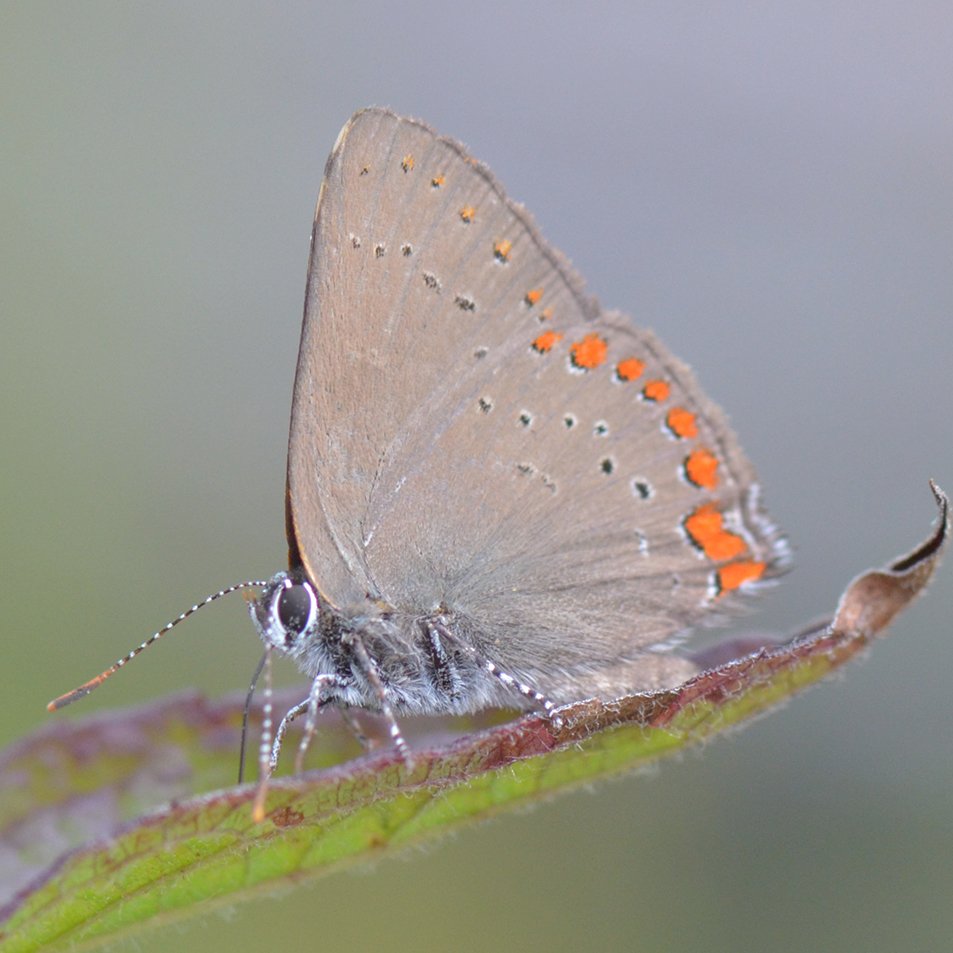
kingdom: Animalia
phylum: Arthropoda
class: Insecta
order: Lepidoptera
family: Lycaenidae
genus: Harkenclenus
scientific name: Harkenclenus titus
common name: Coral Hairstreak
